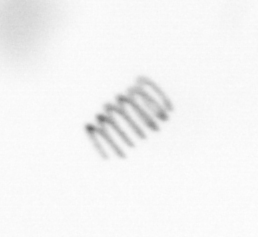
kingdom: Chromista
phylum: Ochrophyta
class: Bacillariophyceae
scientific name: Bacillariophyceae
